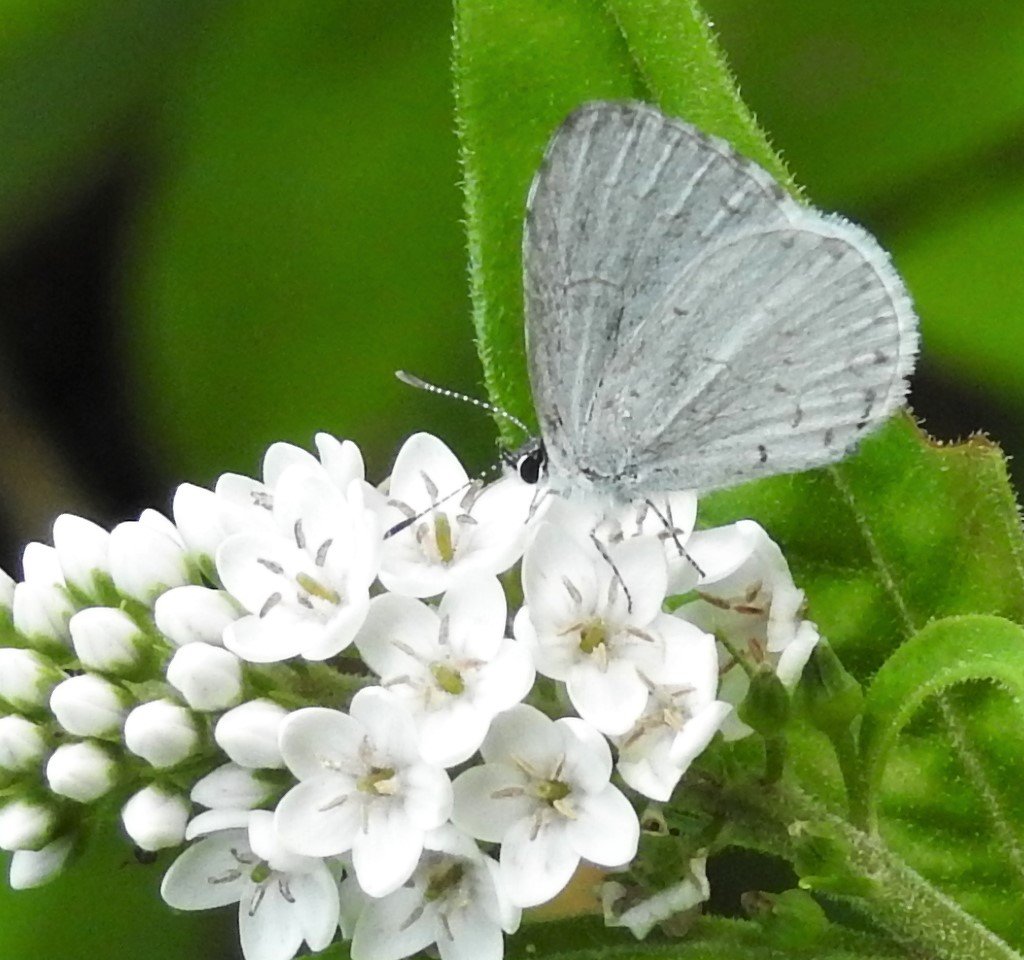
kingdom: Animalia
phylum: Arthropoda
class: Insecta
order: Lepidoptera
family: Lycaenidae
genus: Celastrina
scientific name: Celastrina
